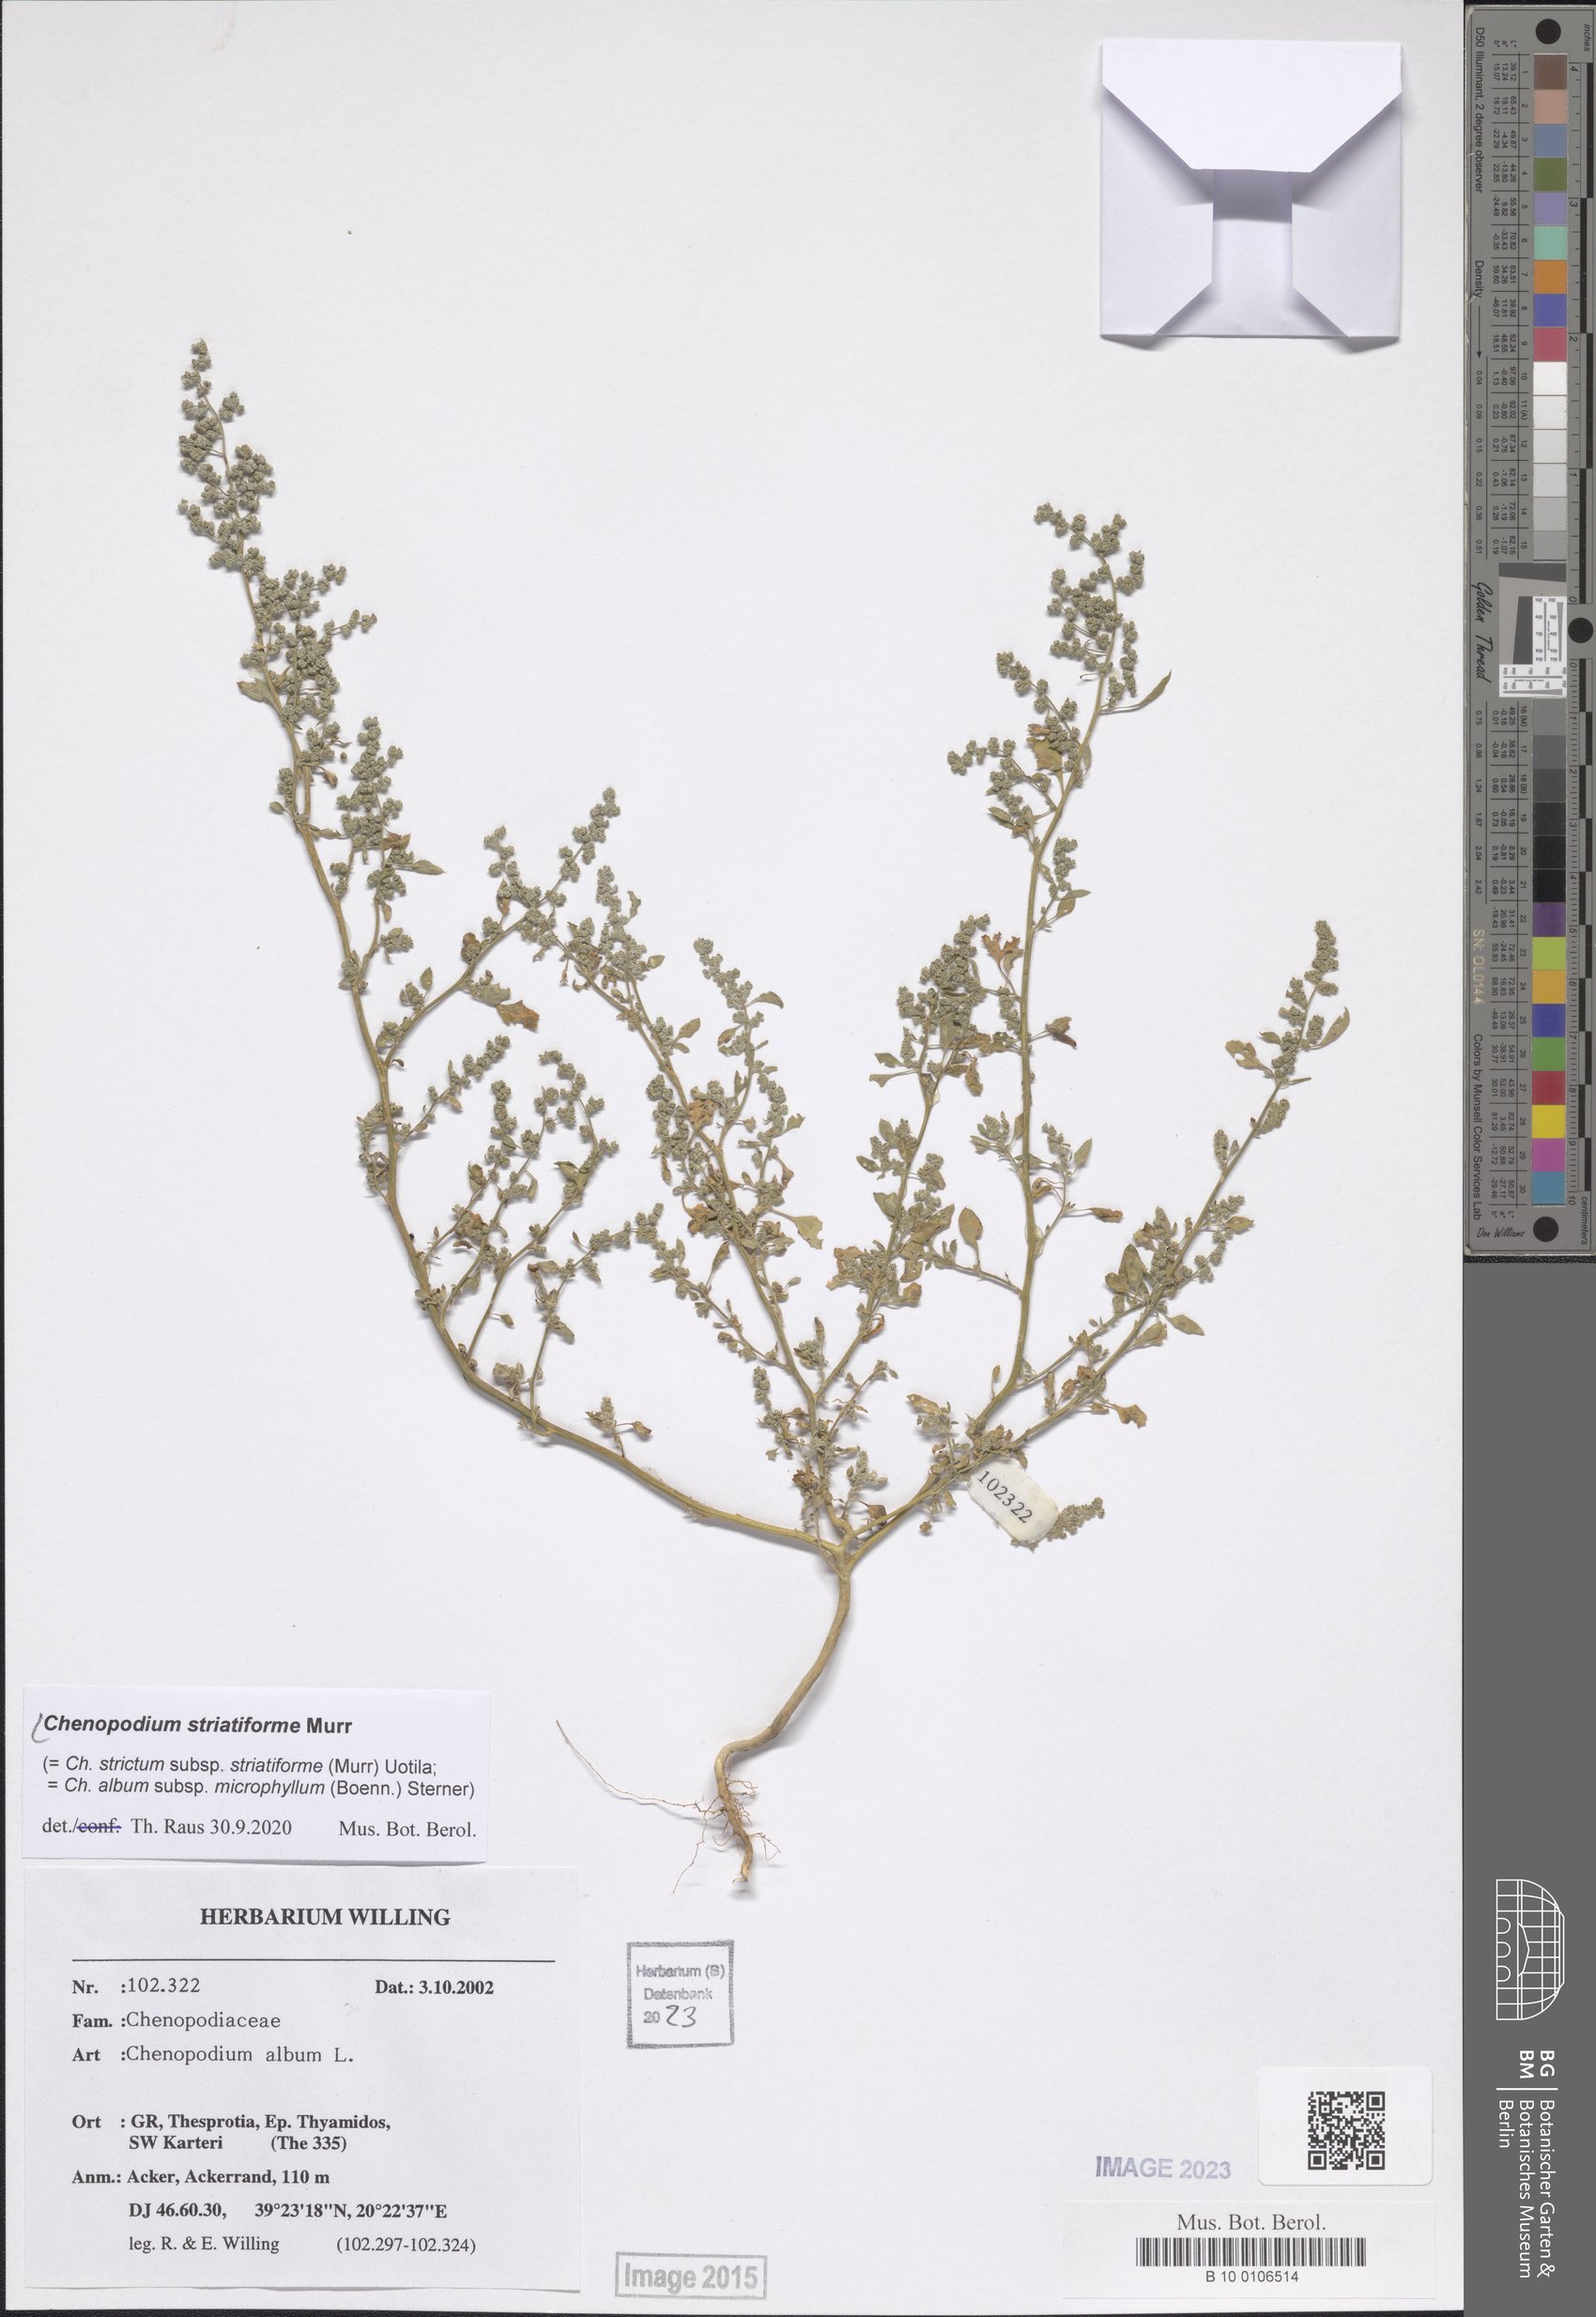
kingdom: Plantae
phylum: Tracheophyta
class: Magnoliopsida
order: Caryophyllales
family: Amaranthaceae
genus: Chenopodium
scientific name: Chenopodium striatiforme
